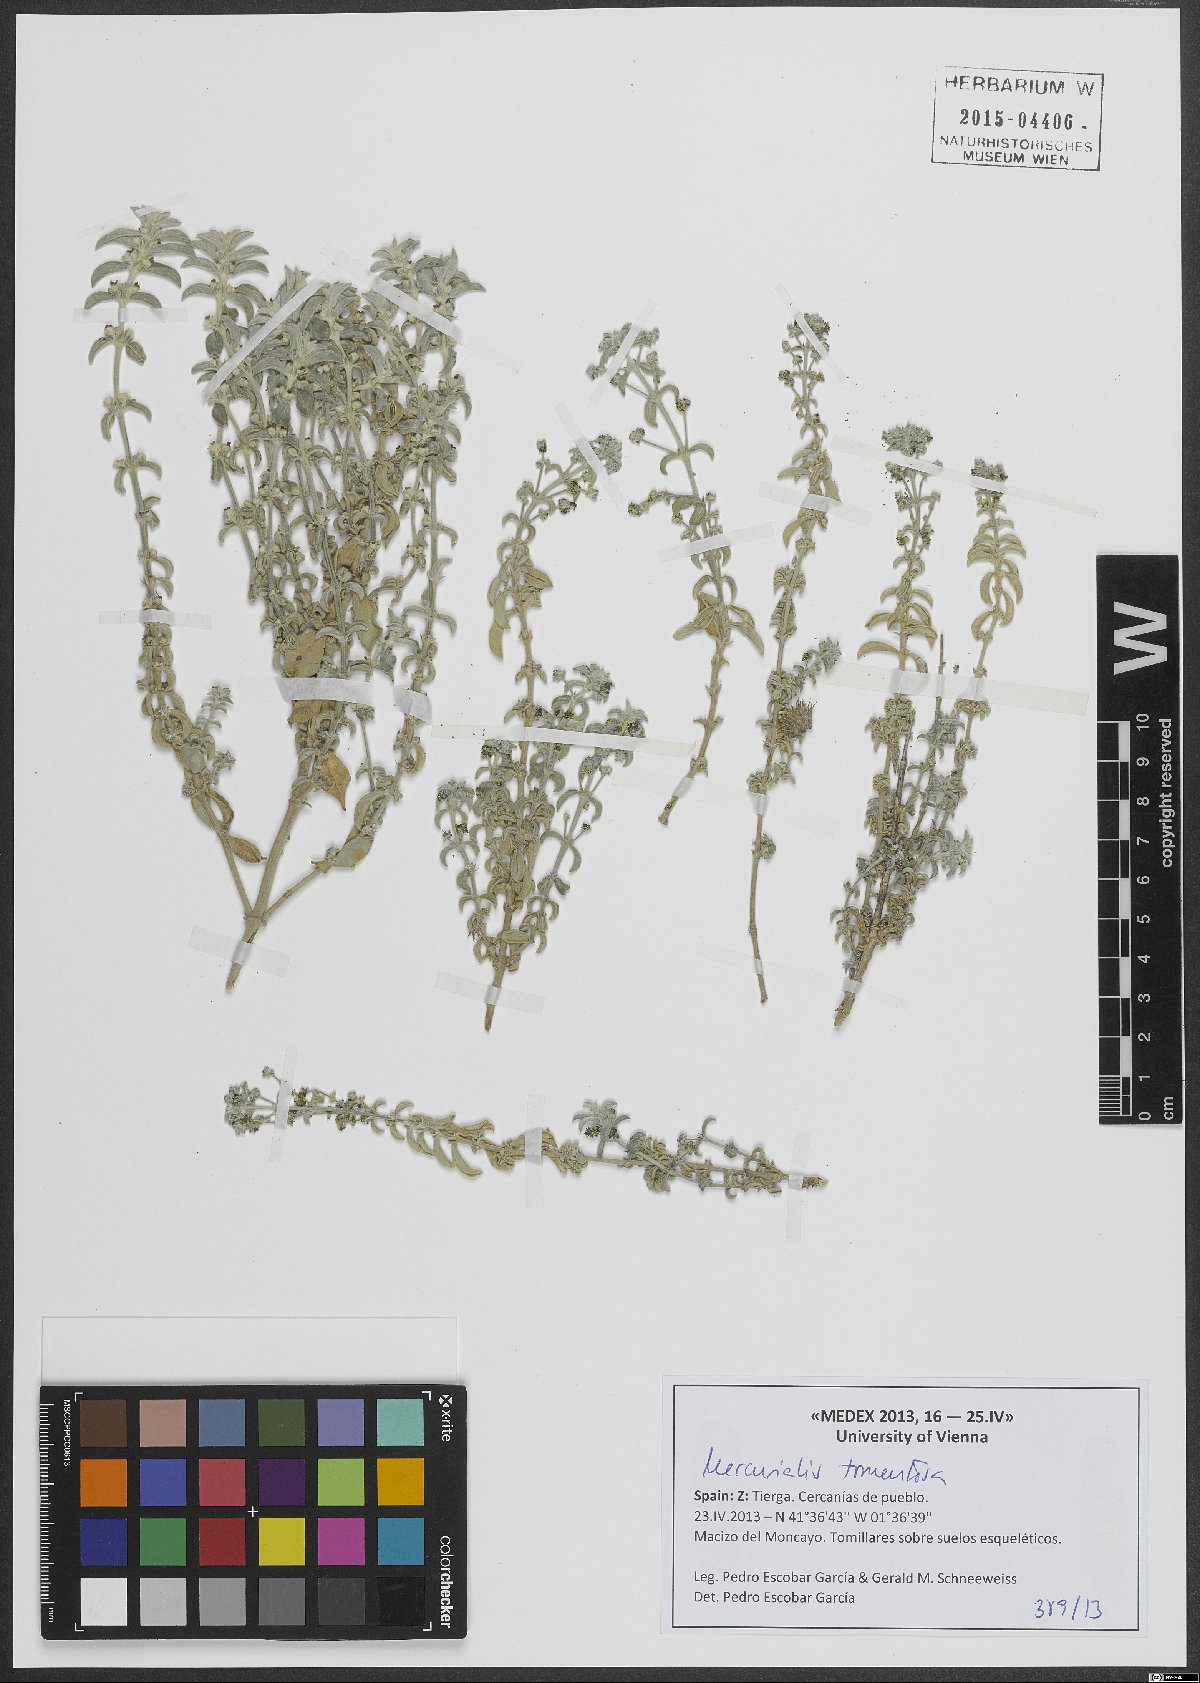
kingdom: Plantae
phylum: Tracheophyta
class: Magnoliopsida
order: Malpighiales
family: Euphorbiaceae
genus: Mercurialis
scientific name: Mercurialis tomentosa
